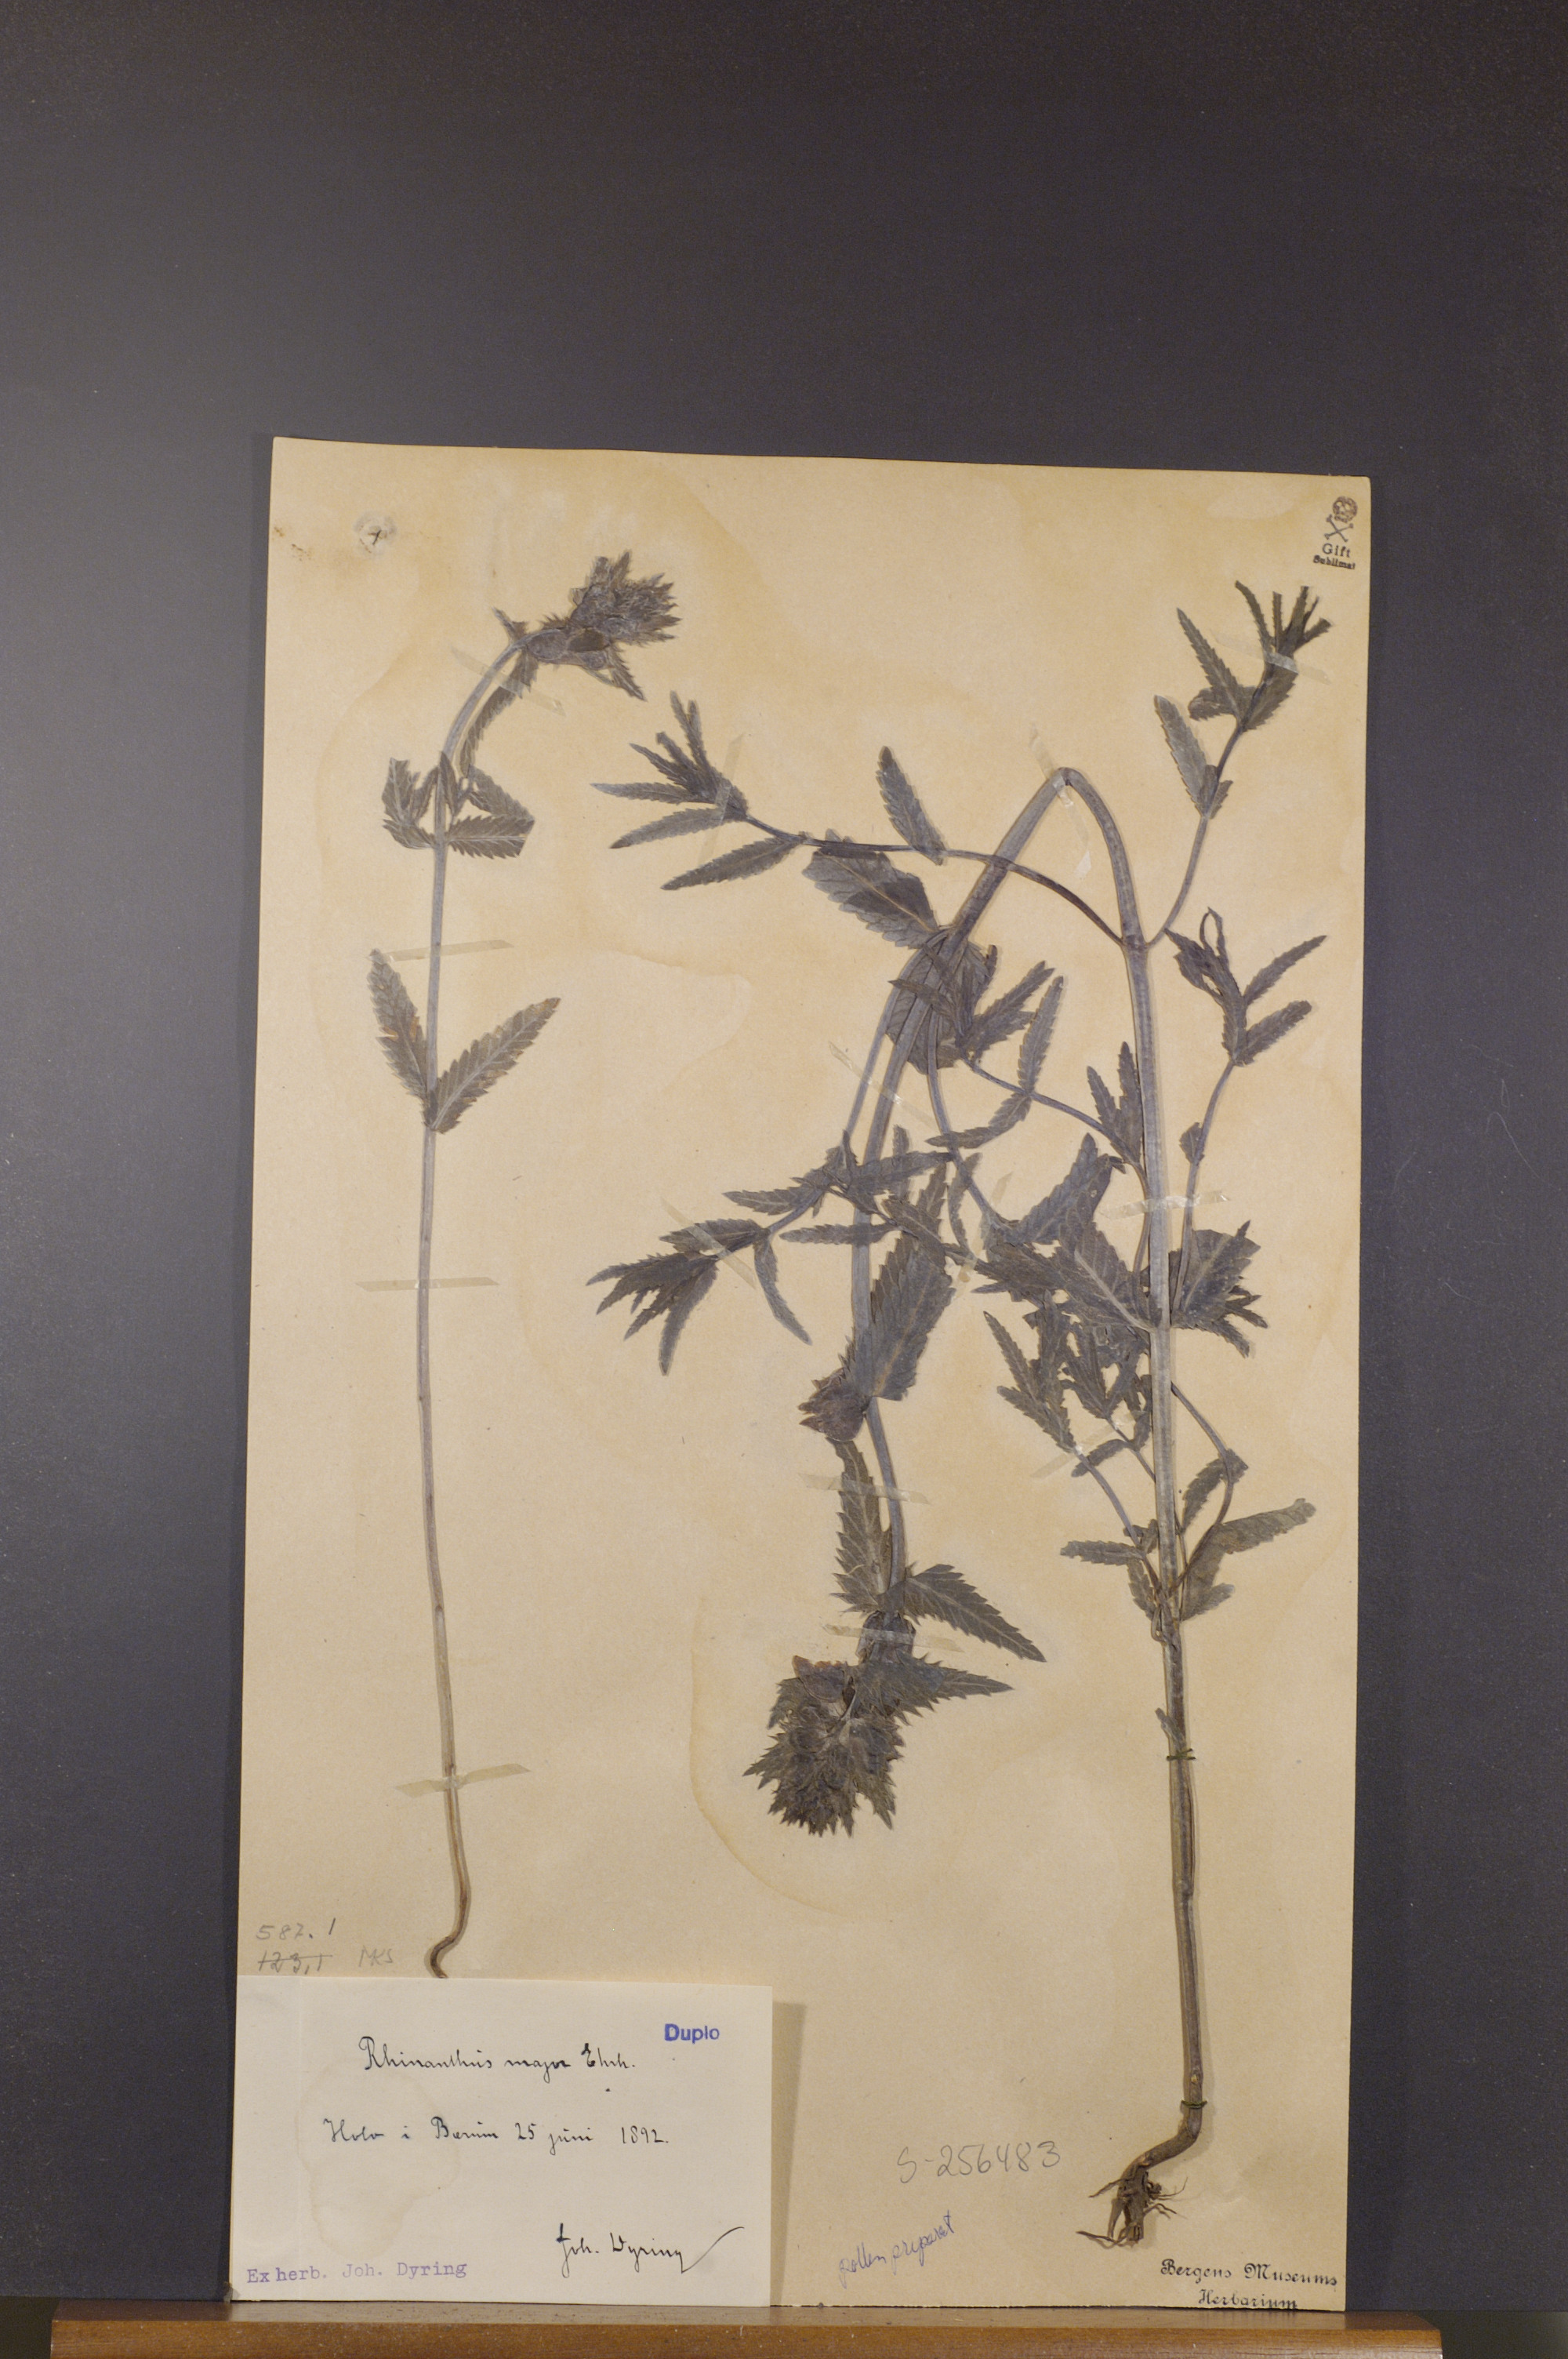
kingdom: Plantae
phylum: Tracheophyta
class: Magnoliopsida
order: Lamiales
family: Orobanchaceae
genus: Rhinanthus
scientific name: Rhinanthus serotinus
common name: Late-flowering yellow rattle
